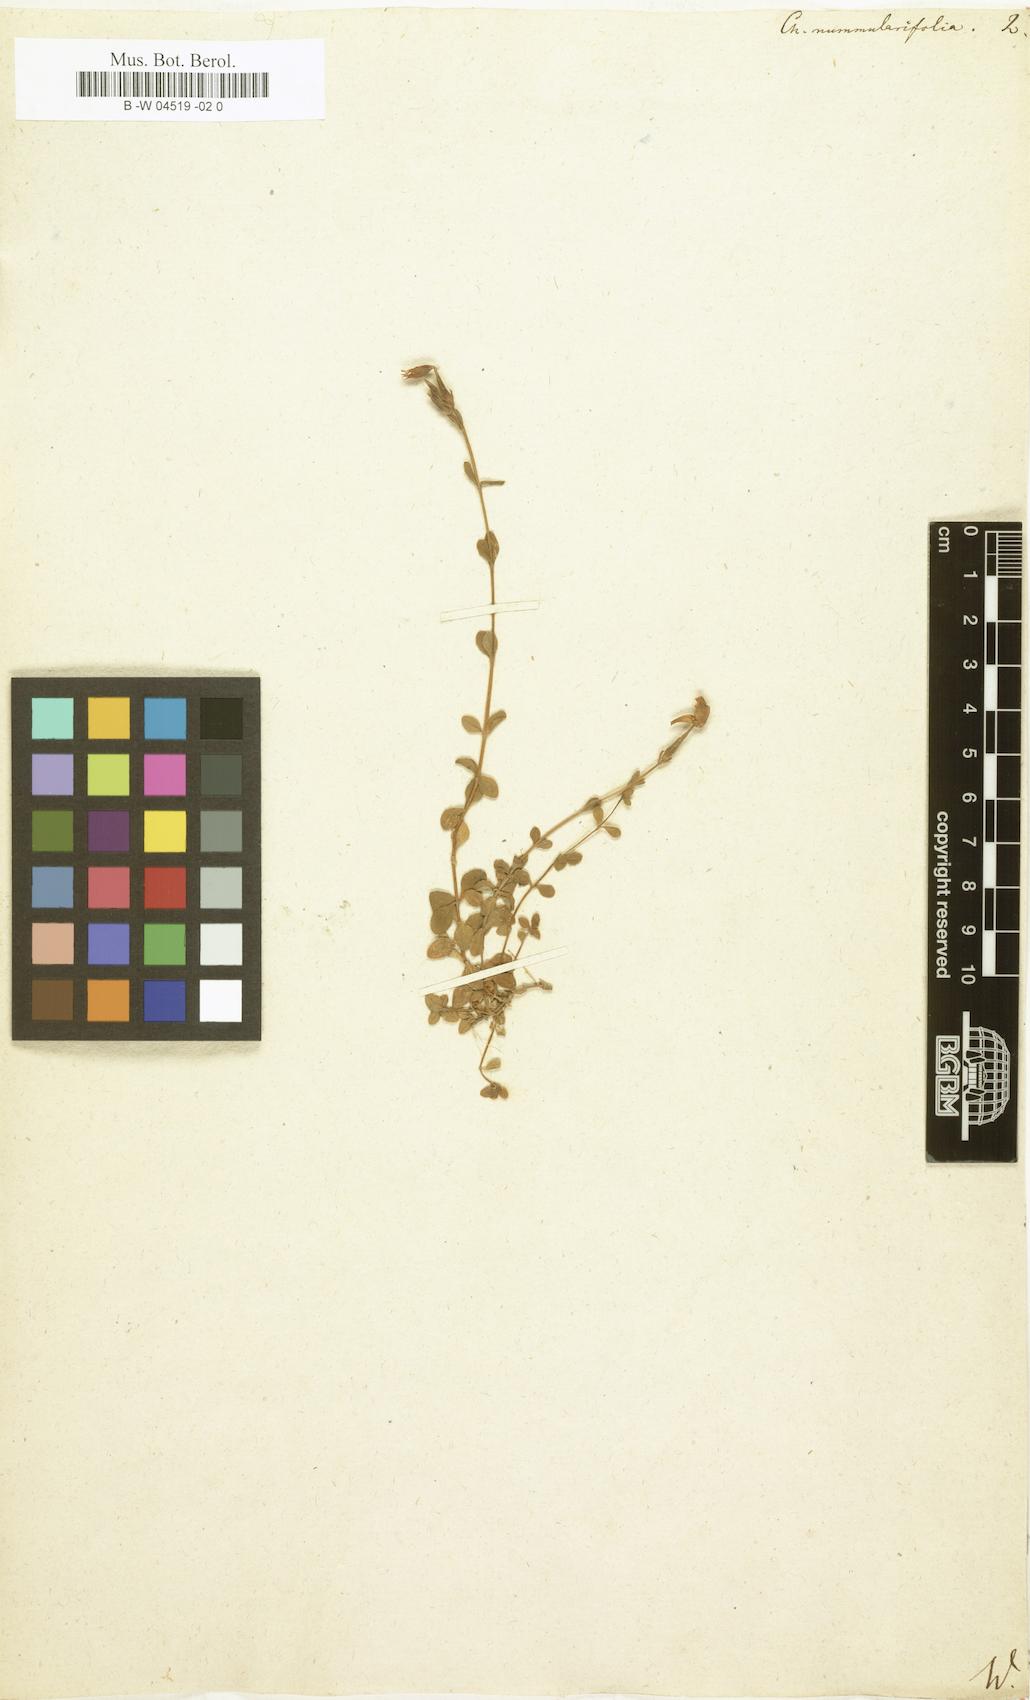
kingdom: Plantae
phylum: Tracheophyta
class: Magnoliopsida
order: Gentianales
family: Gentianaceae
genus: Centaurium
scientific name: Centaurium scilloides
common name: Perennial centaury
